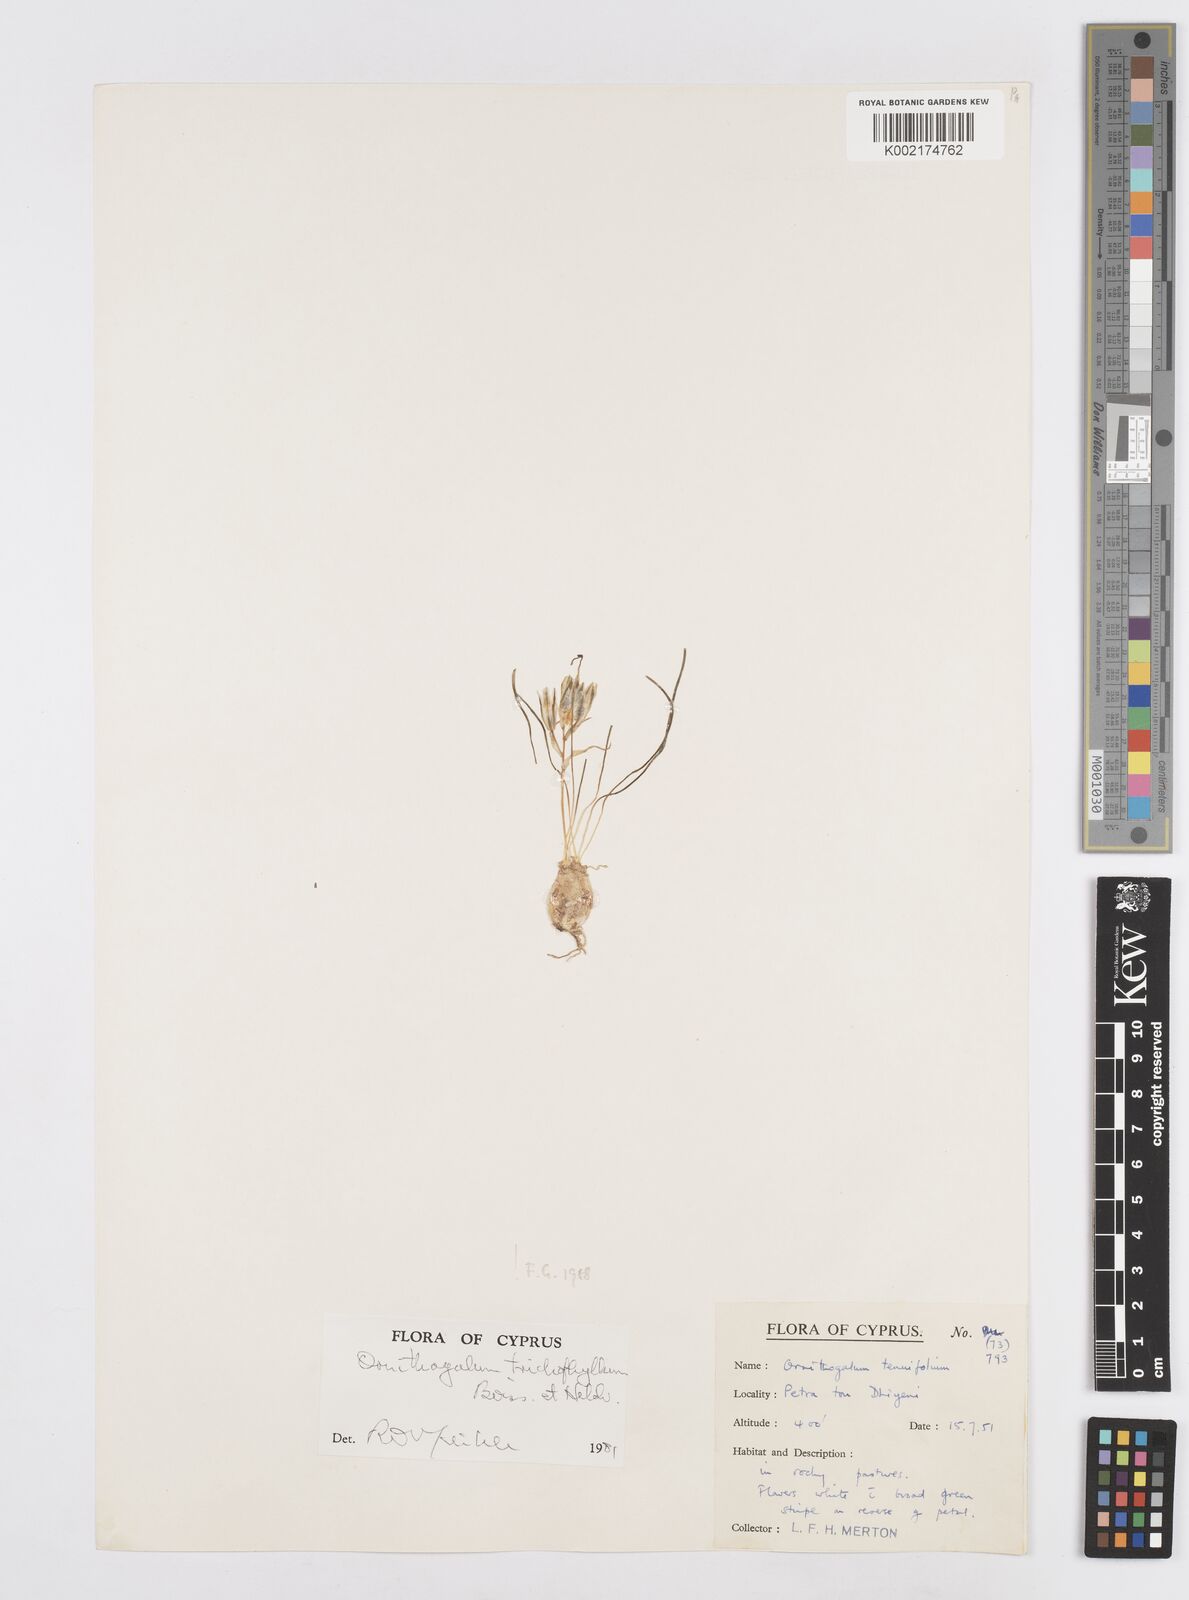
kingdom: Plantae
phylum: Tracheophyta
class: Liliopsida
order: Asparagales
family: Asparagaceae
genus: Ornithogalum
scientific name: Ornithogalum trichophyllum
